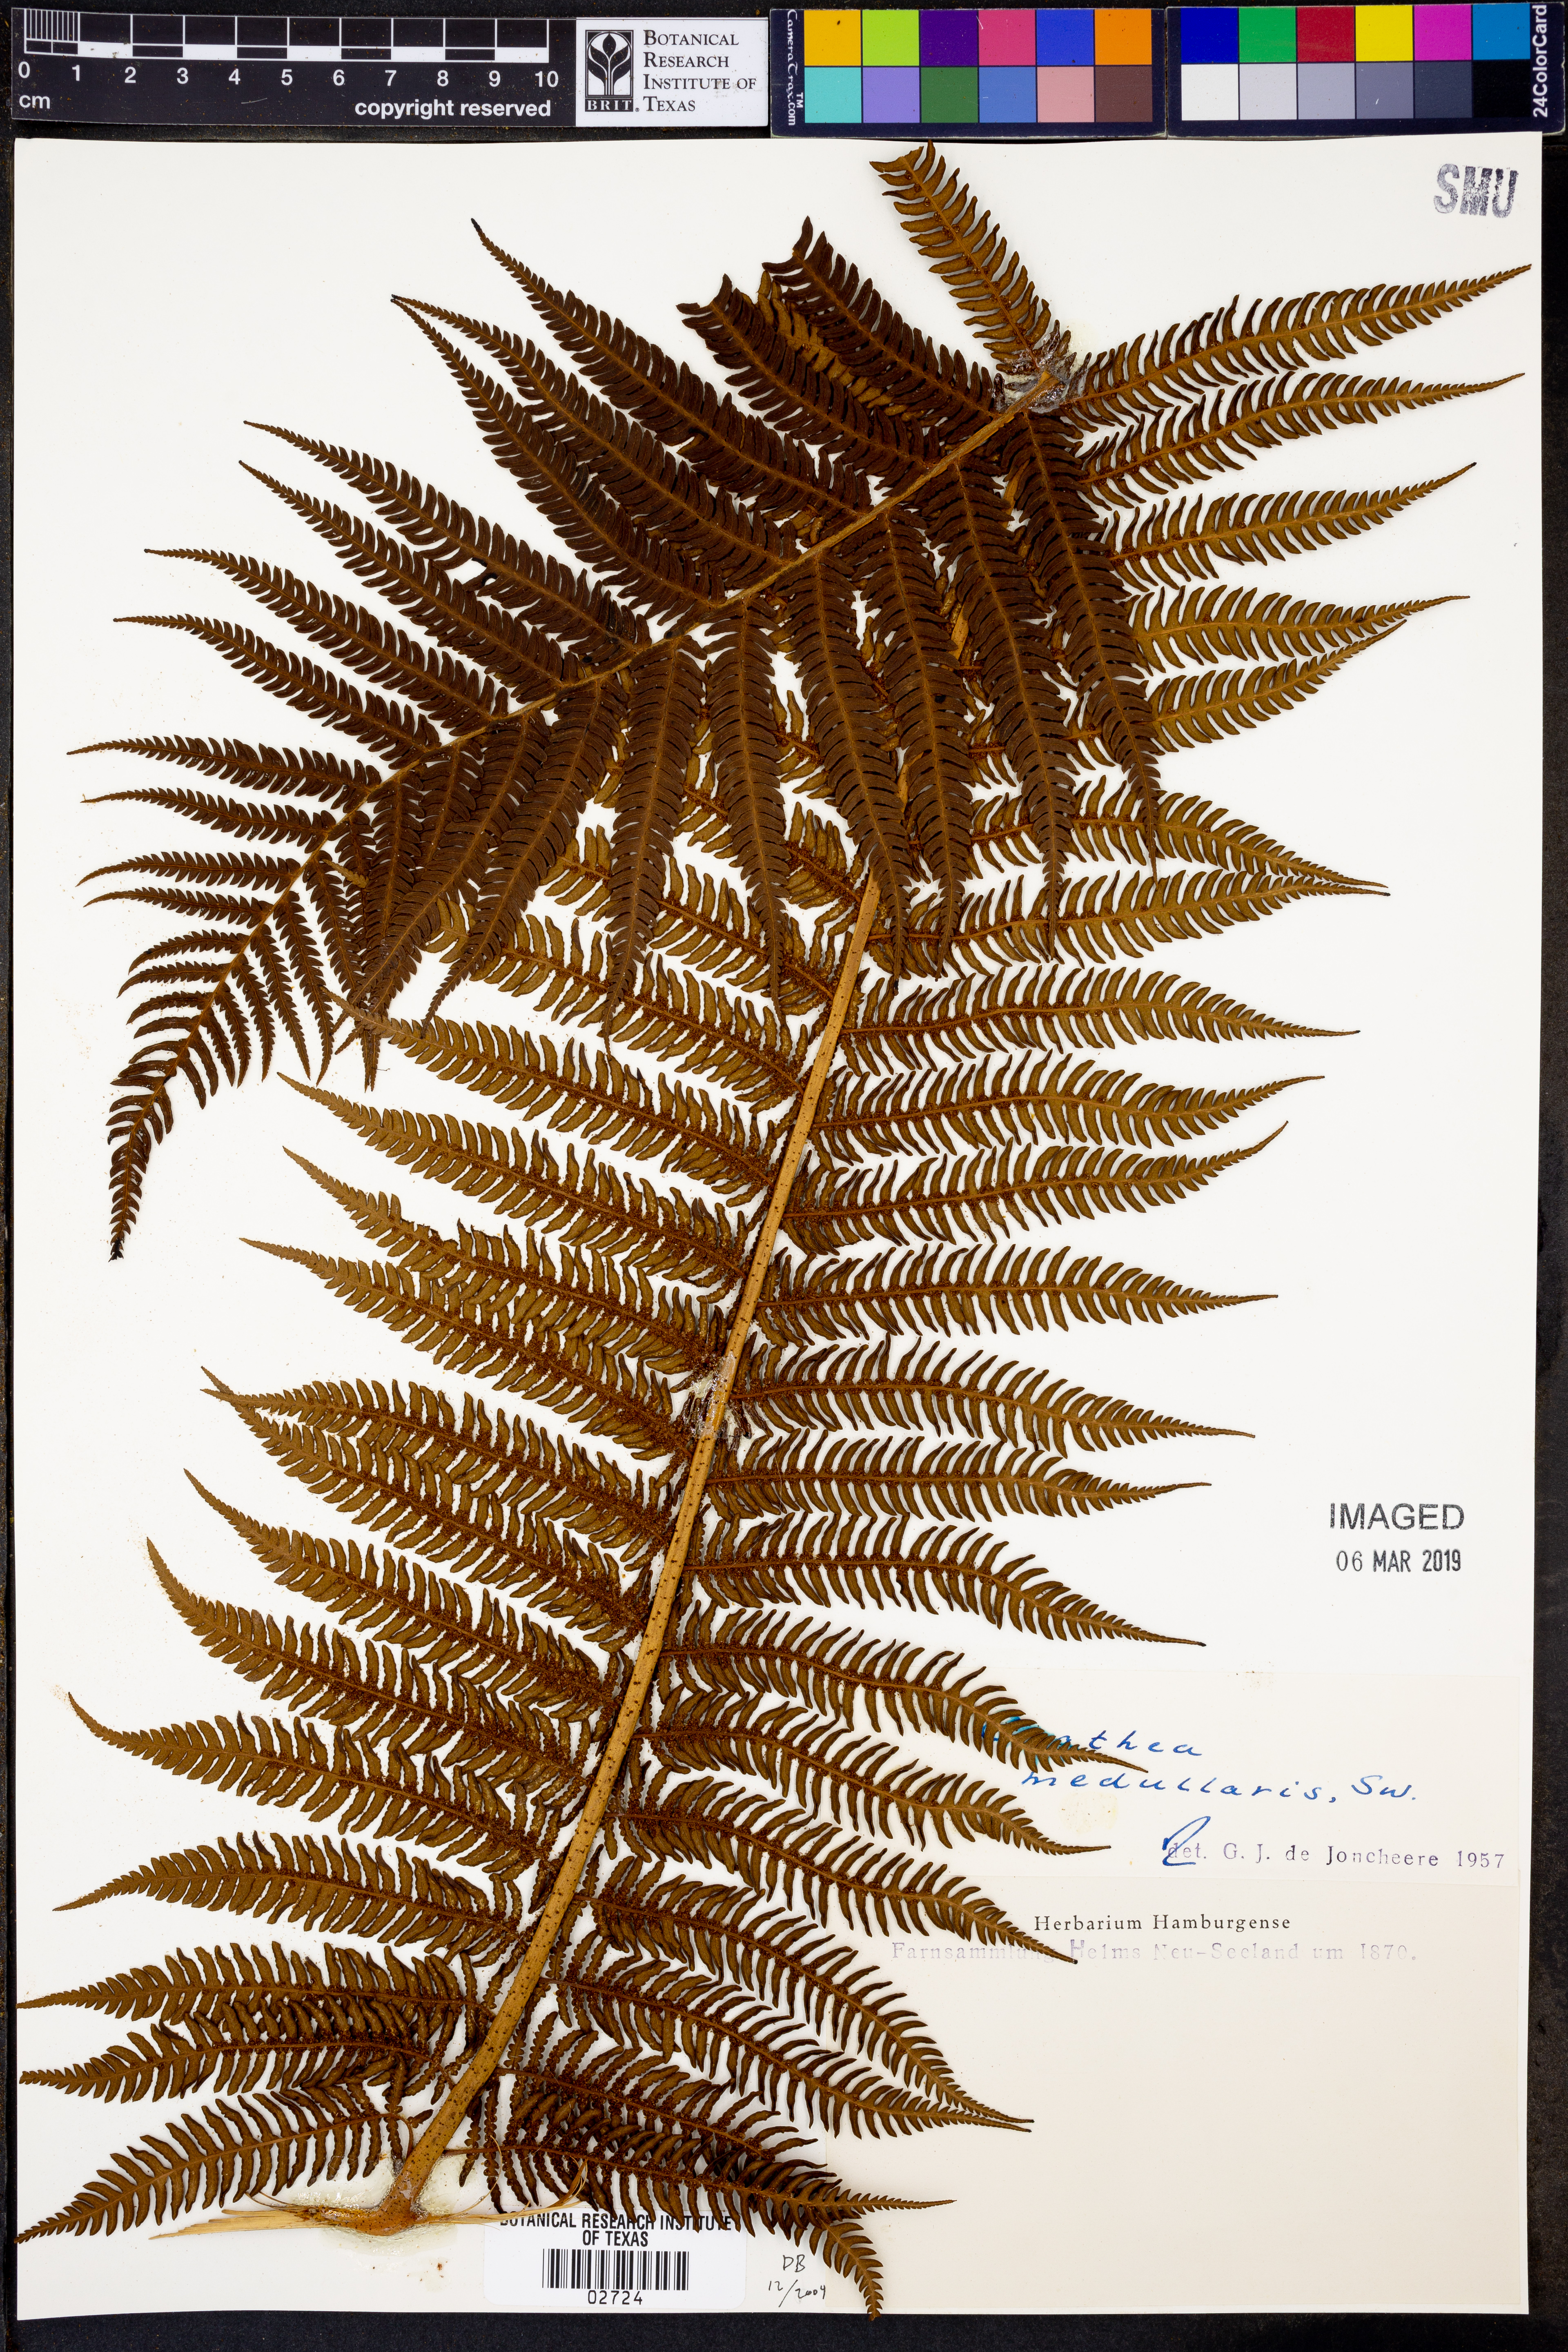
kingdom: Plantae
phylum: Tracheophyta
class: Polypodiopsida
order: Cyatheales
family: Cyatheaceae
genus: Sphaeropteris
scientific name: Sphaeropteris medullaris
